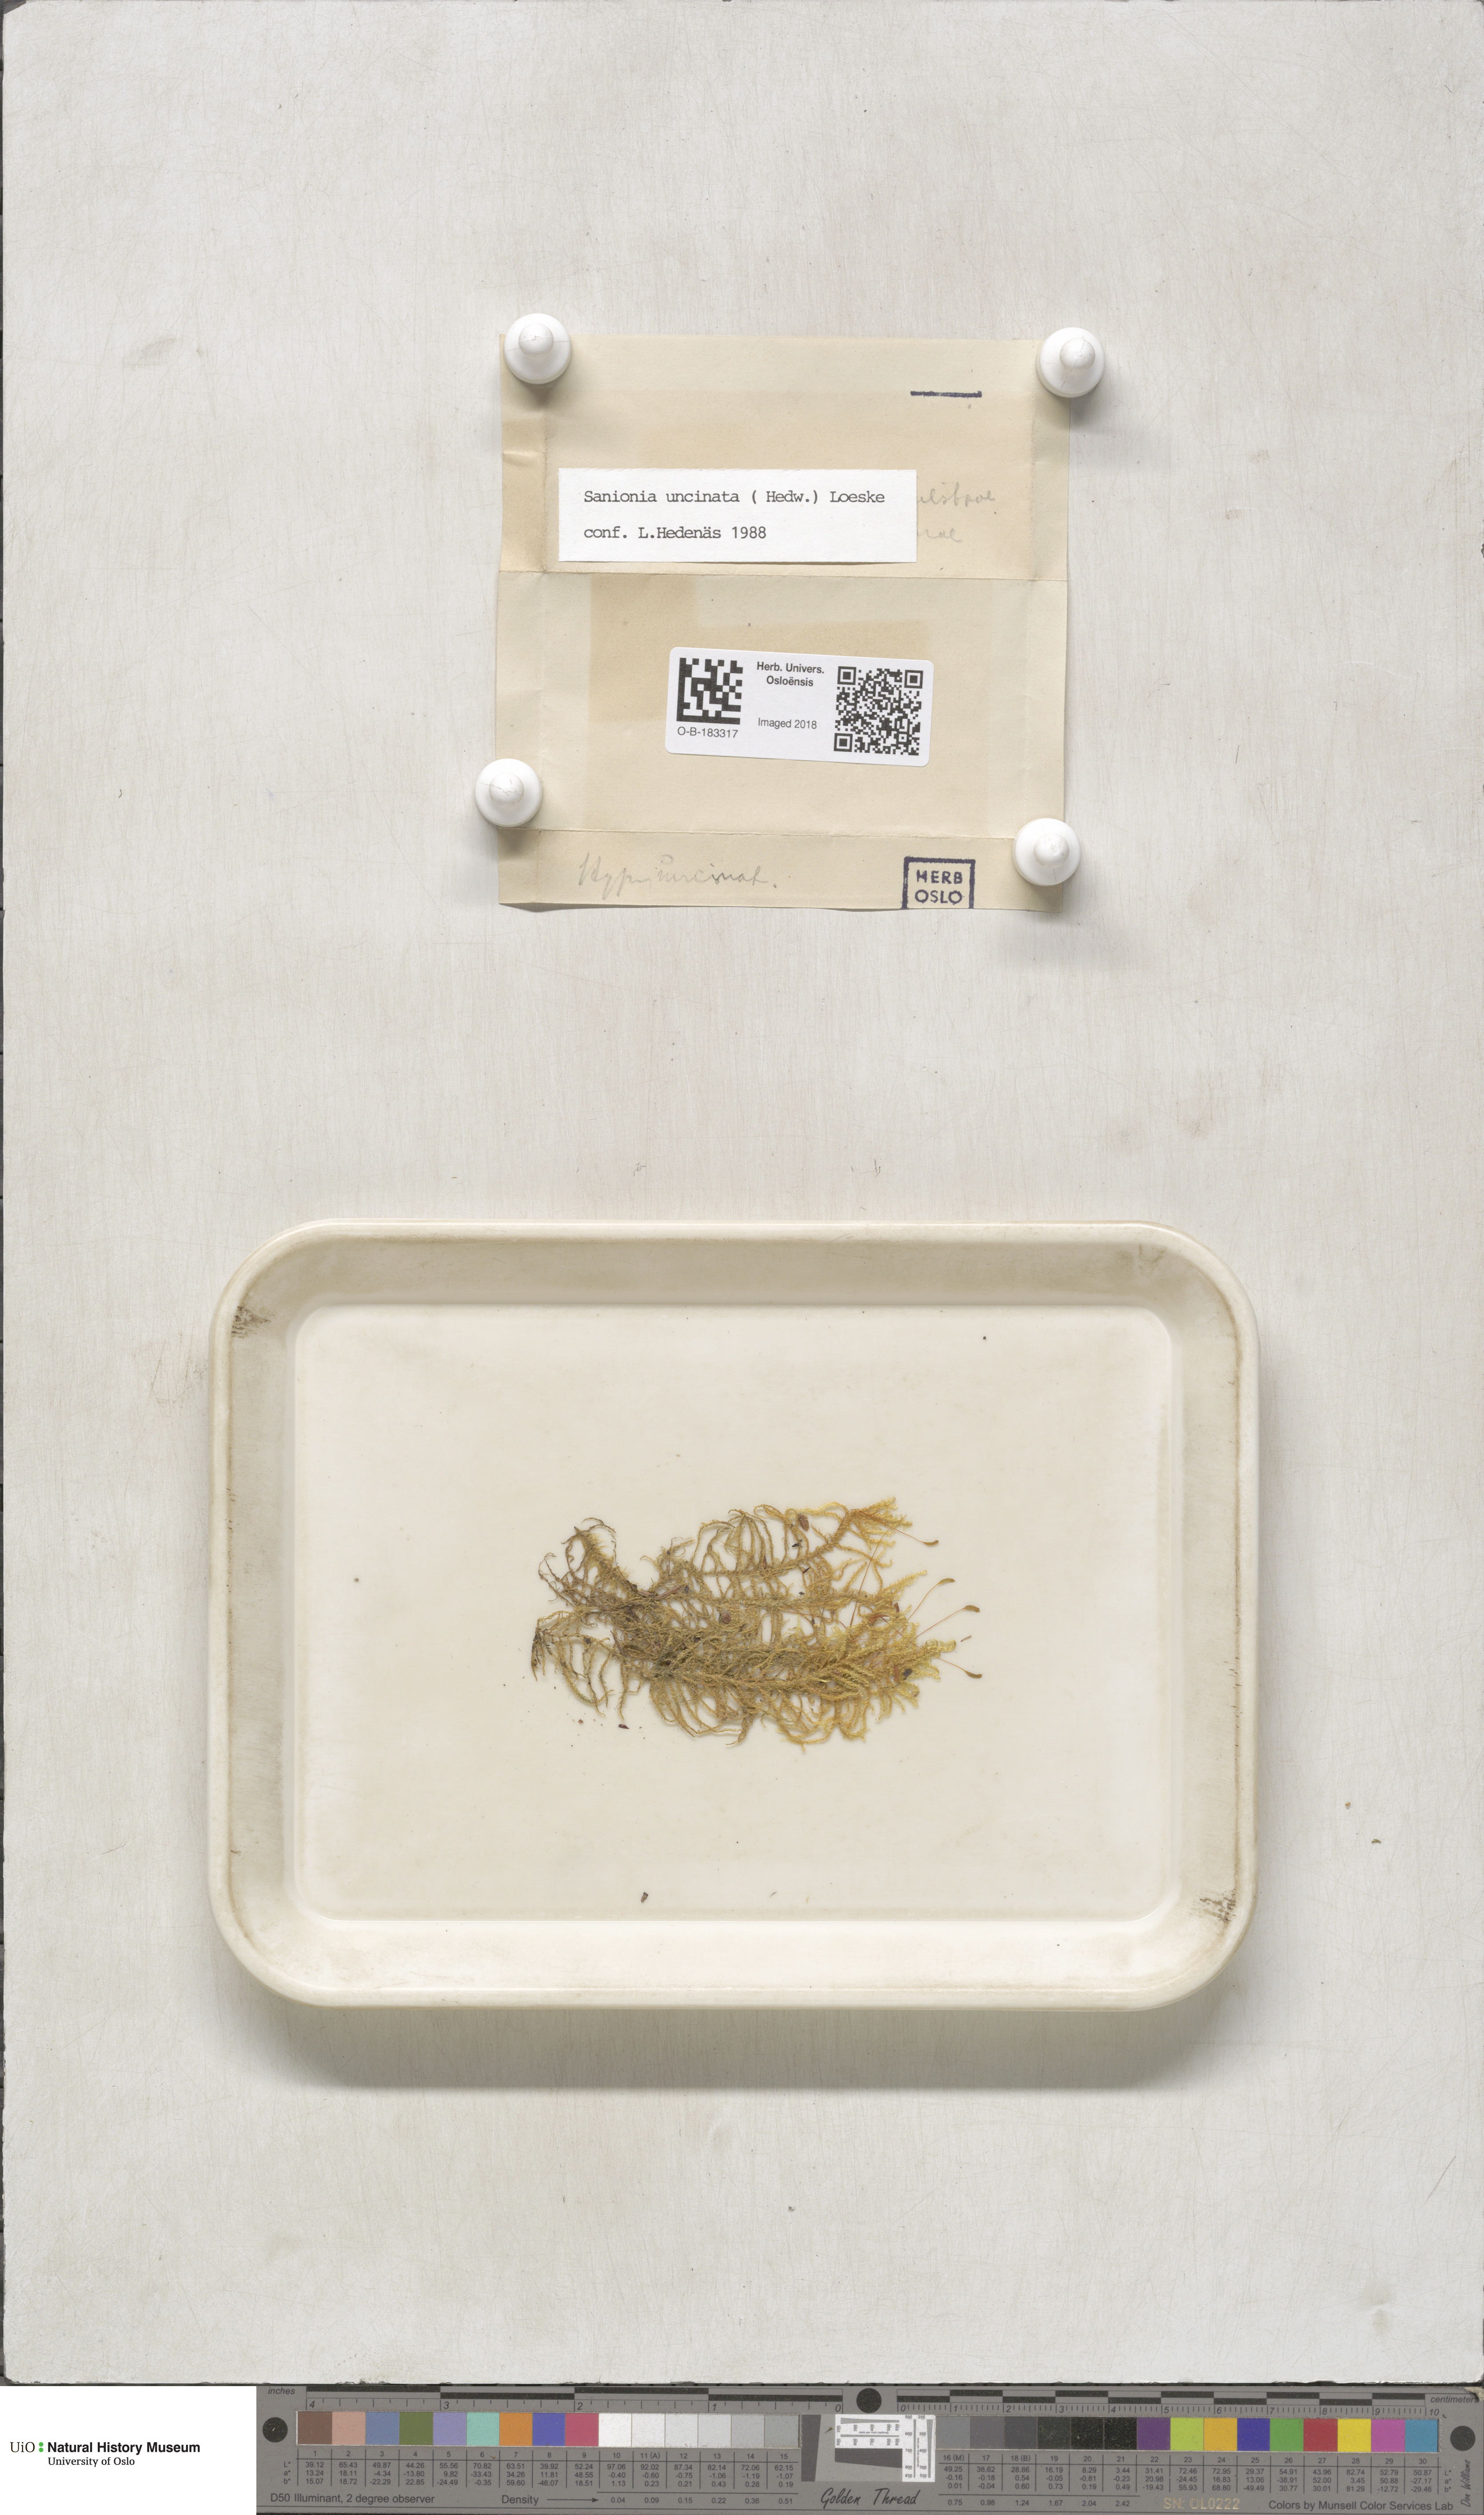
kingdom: Plantae
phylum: Bryophyta
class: Bryopsida
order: Hypnales
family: Scorpidiaceae
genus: Sanionia
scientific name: Sanionia uncinata
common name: Sickle moss
